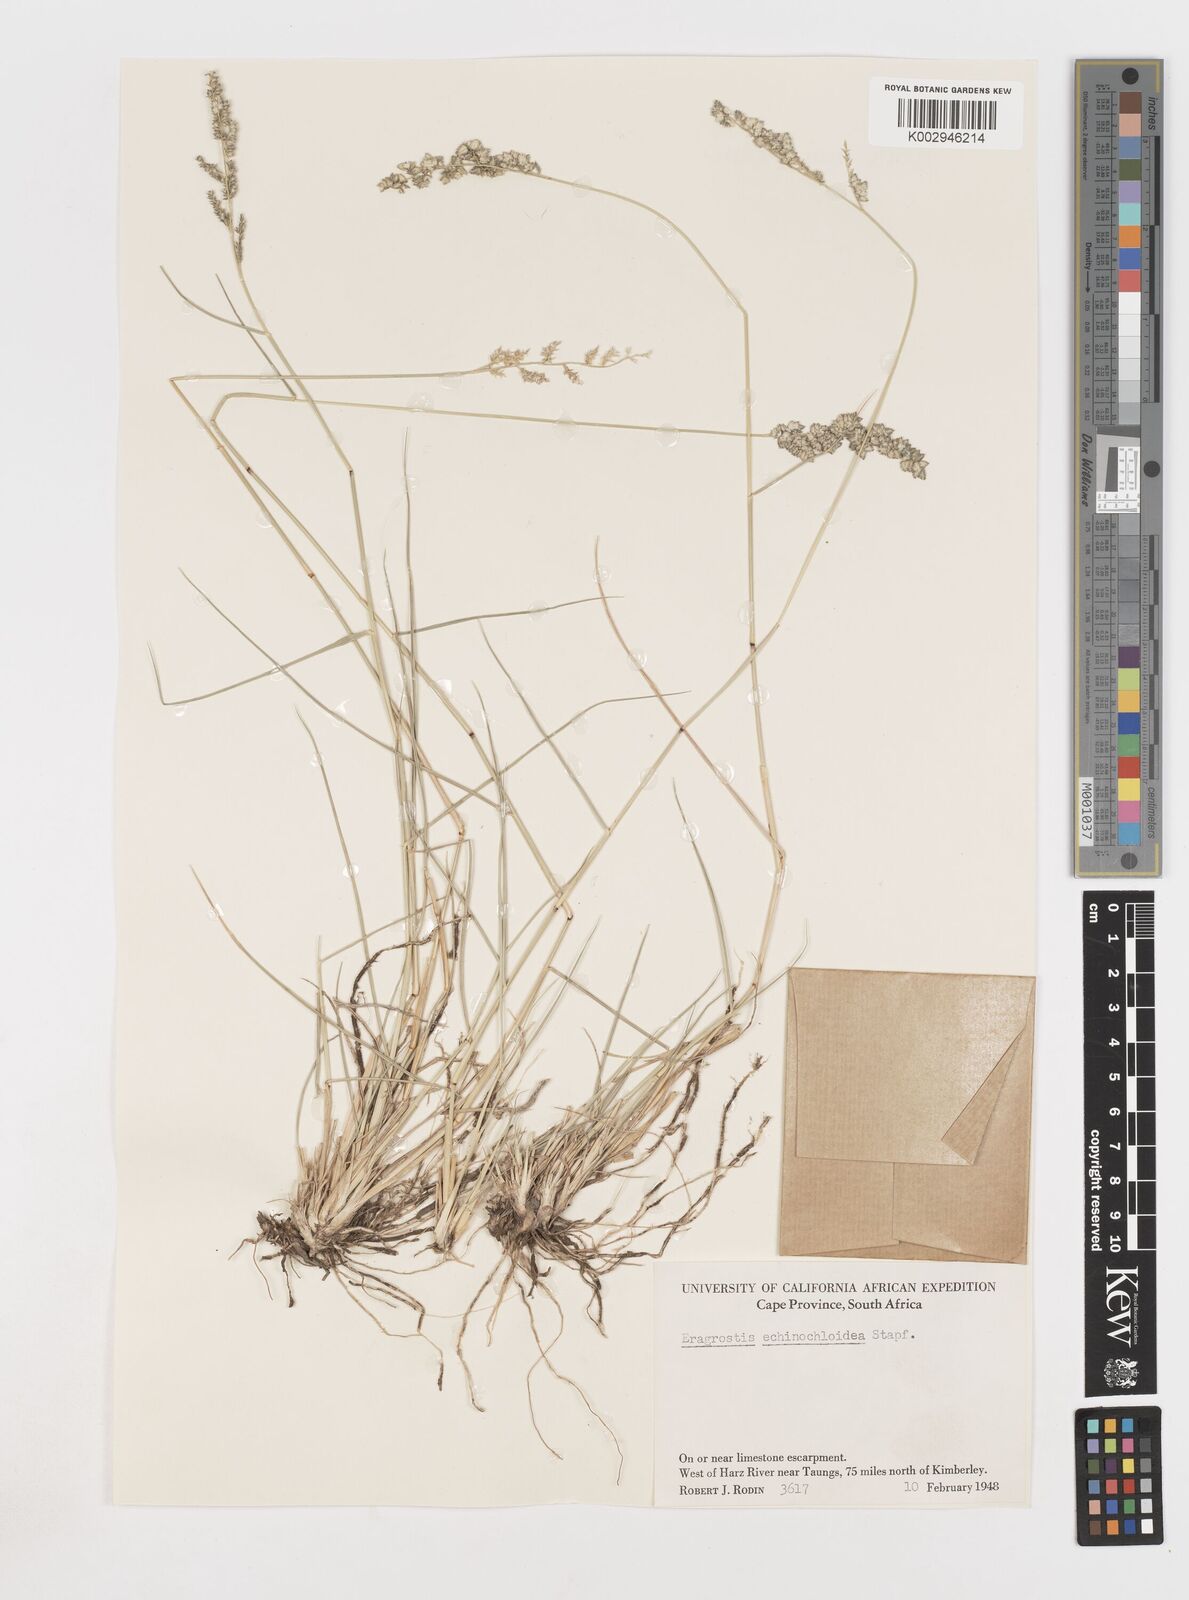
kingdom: Plantae
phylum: Tracheophyta
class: Liliopsida
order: Poales
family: Poaceae
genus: Eragrostis
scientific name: Eragrostis echinochloidea
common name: African lovegrass
